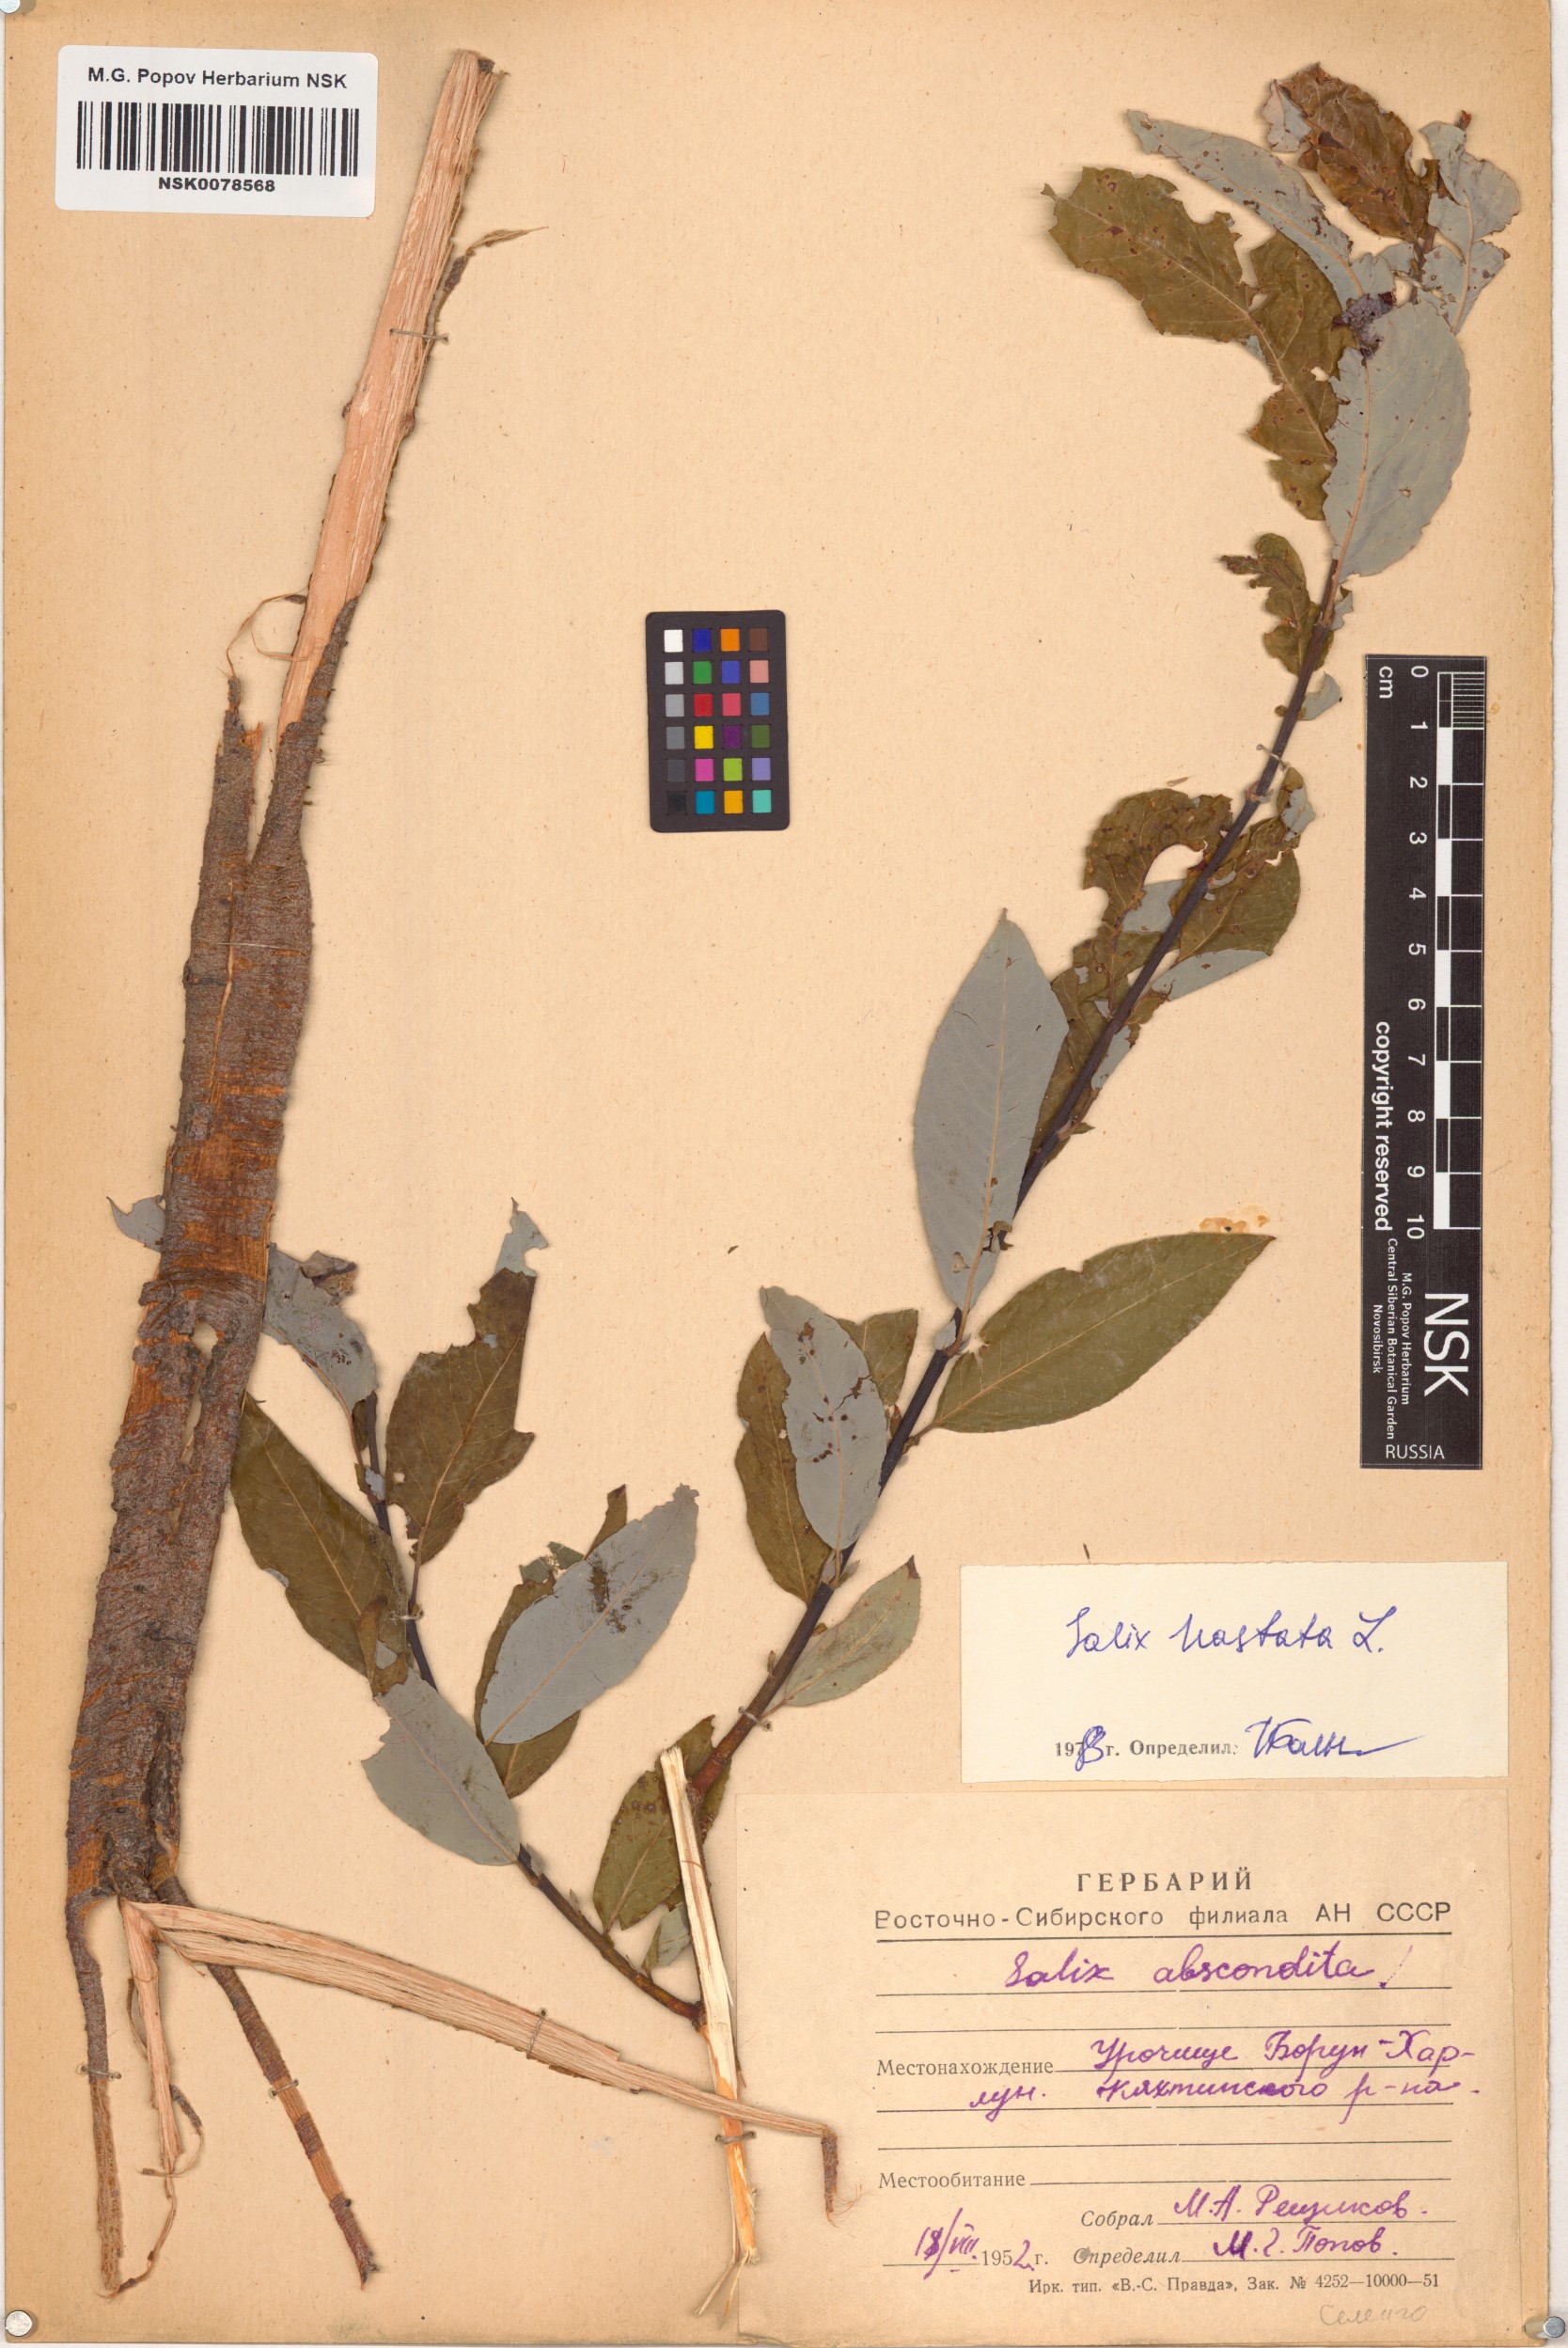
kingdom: Plantae
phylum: Tracheophyta
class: Magnoliopsida
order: Malpighiales
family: Salicaceae
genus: Salix
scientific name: Salix hastata
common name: Halberd willow
